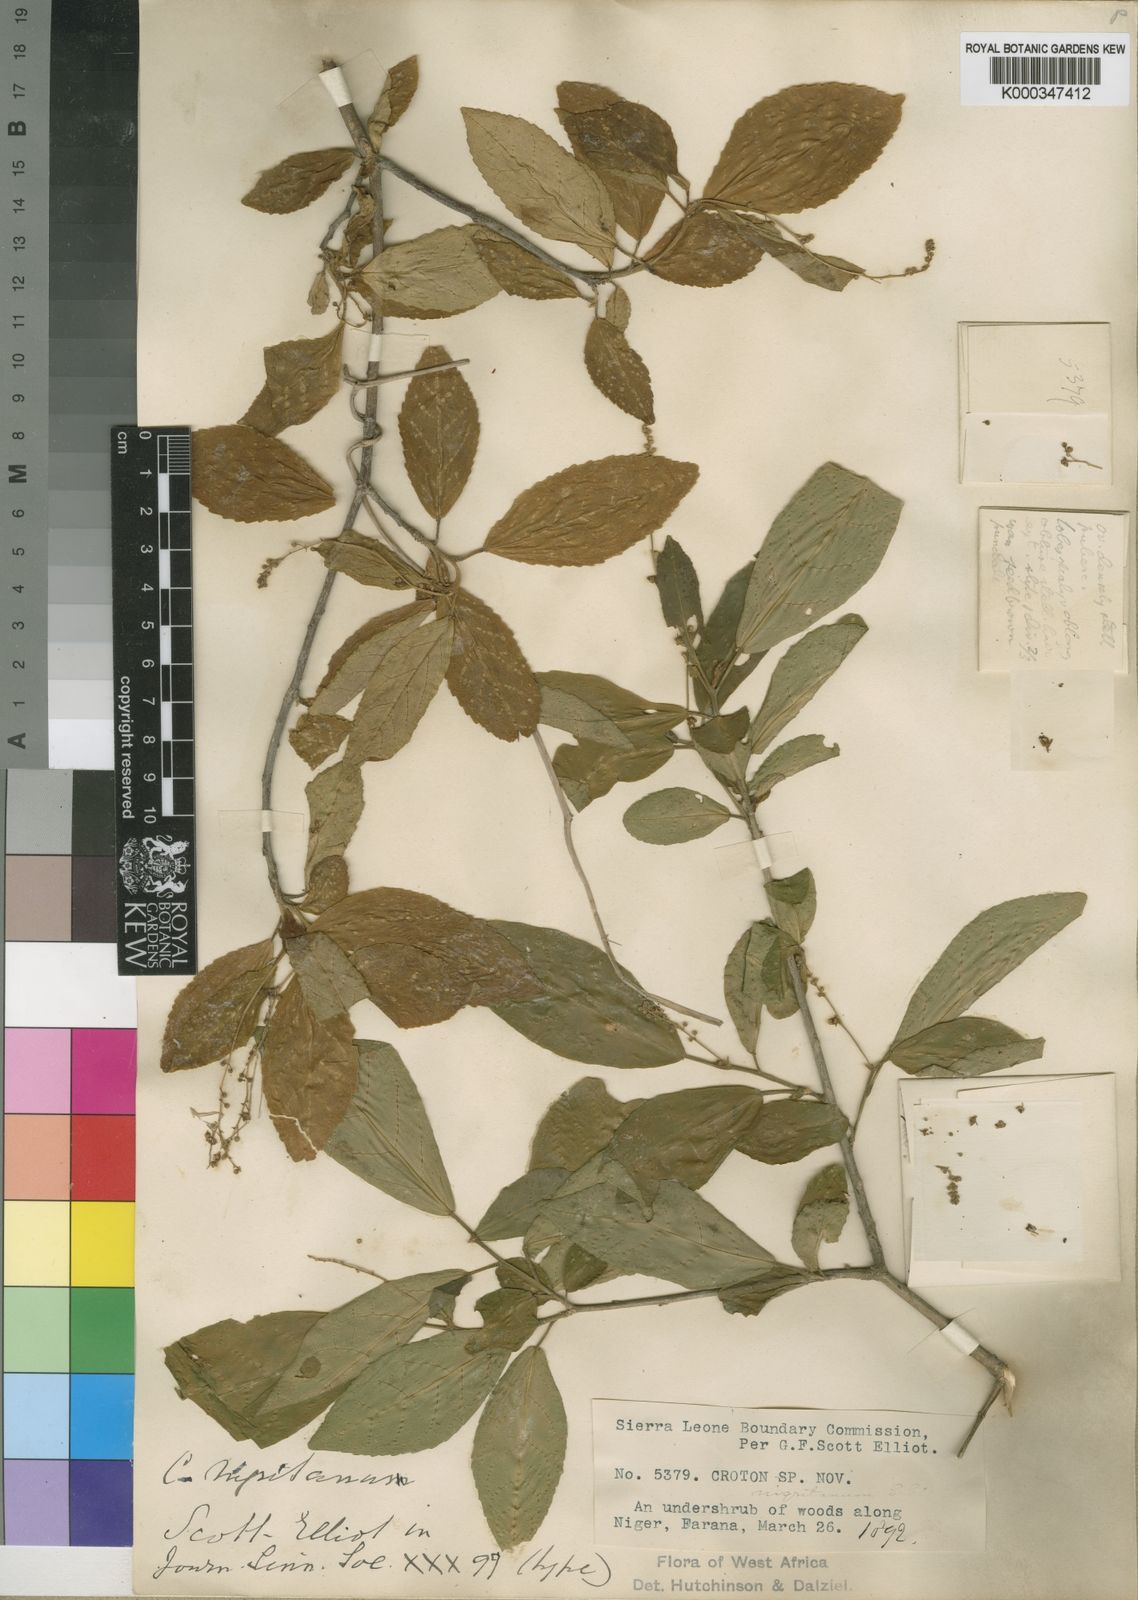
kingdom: Plantae
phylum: Tracheophyta
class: Magnoliopsida
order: Malpighiales
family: Euphorbiaceae
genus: Croton
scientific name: Croton nigritanus
